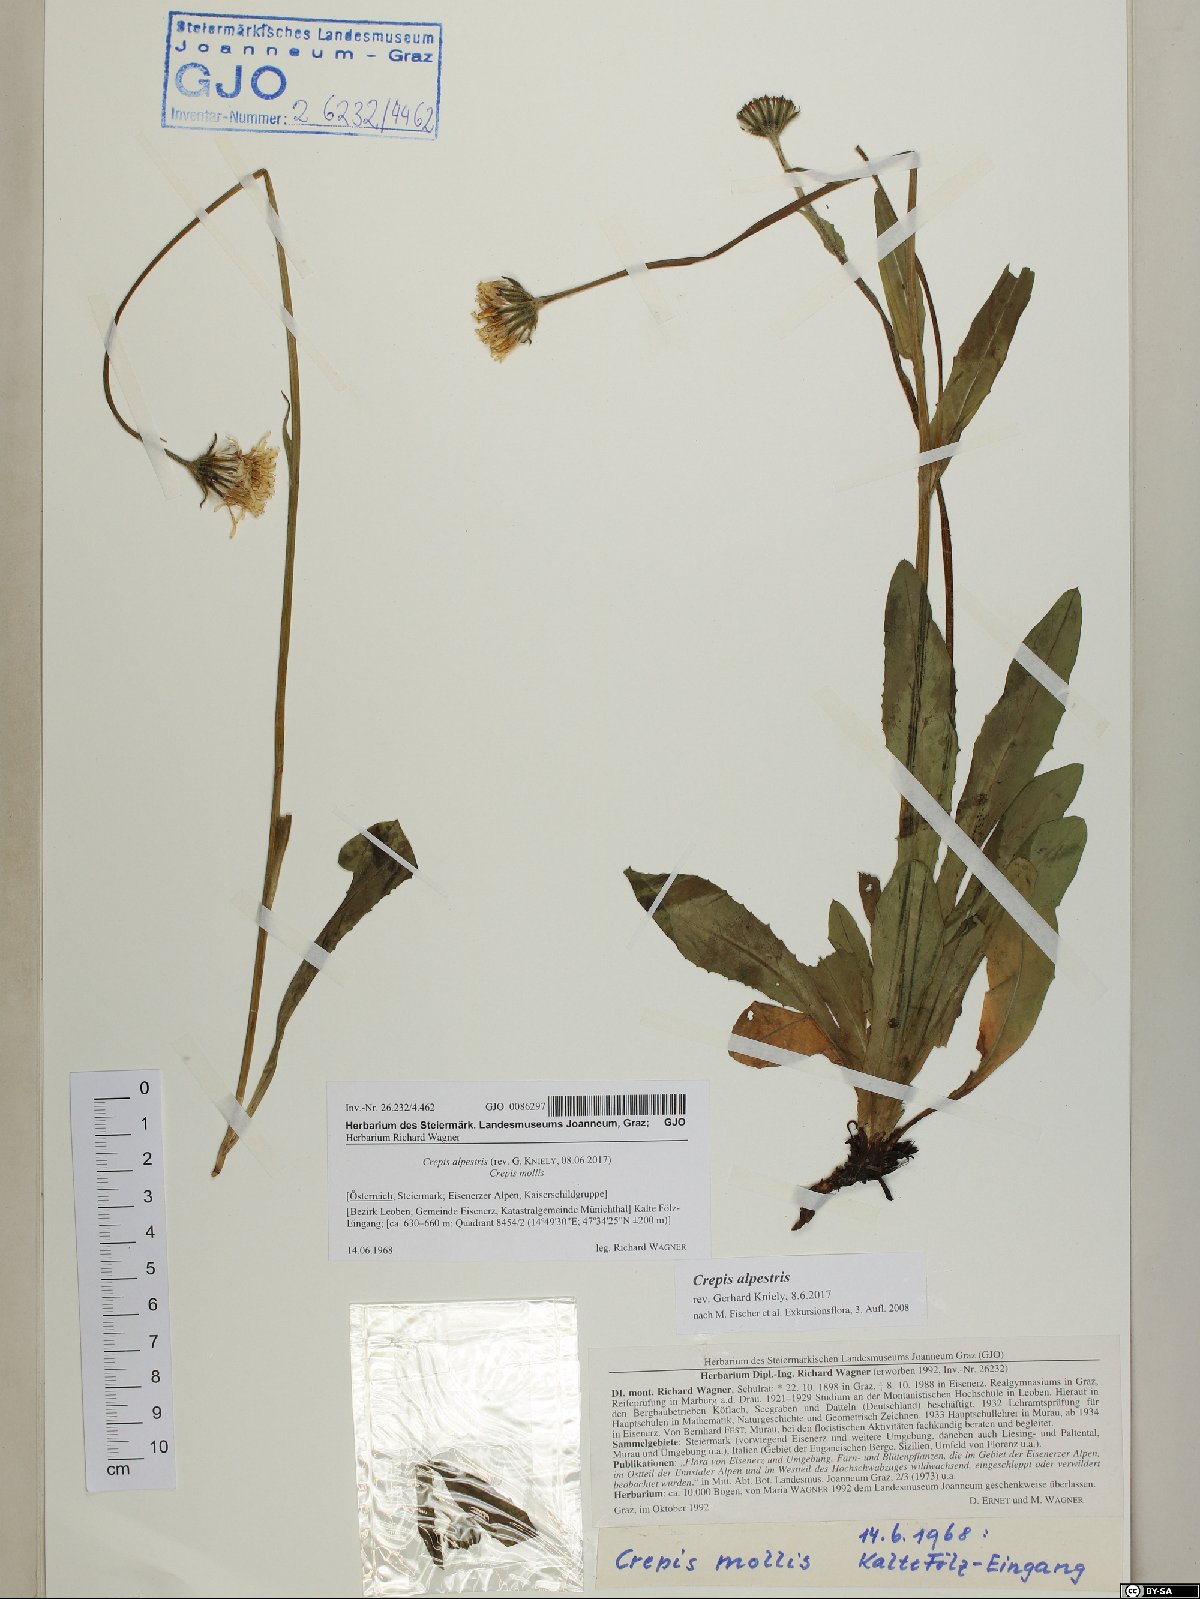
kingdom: Plantae
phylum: Tracheophyta
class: Magnoliopsida
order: Asterales
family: Asteraceae
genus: Crepis
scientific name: Crepis alpestris
